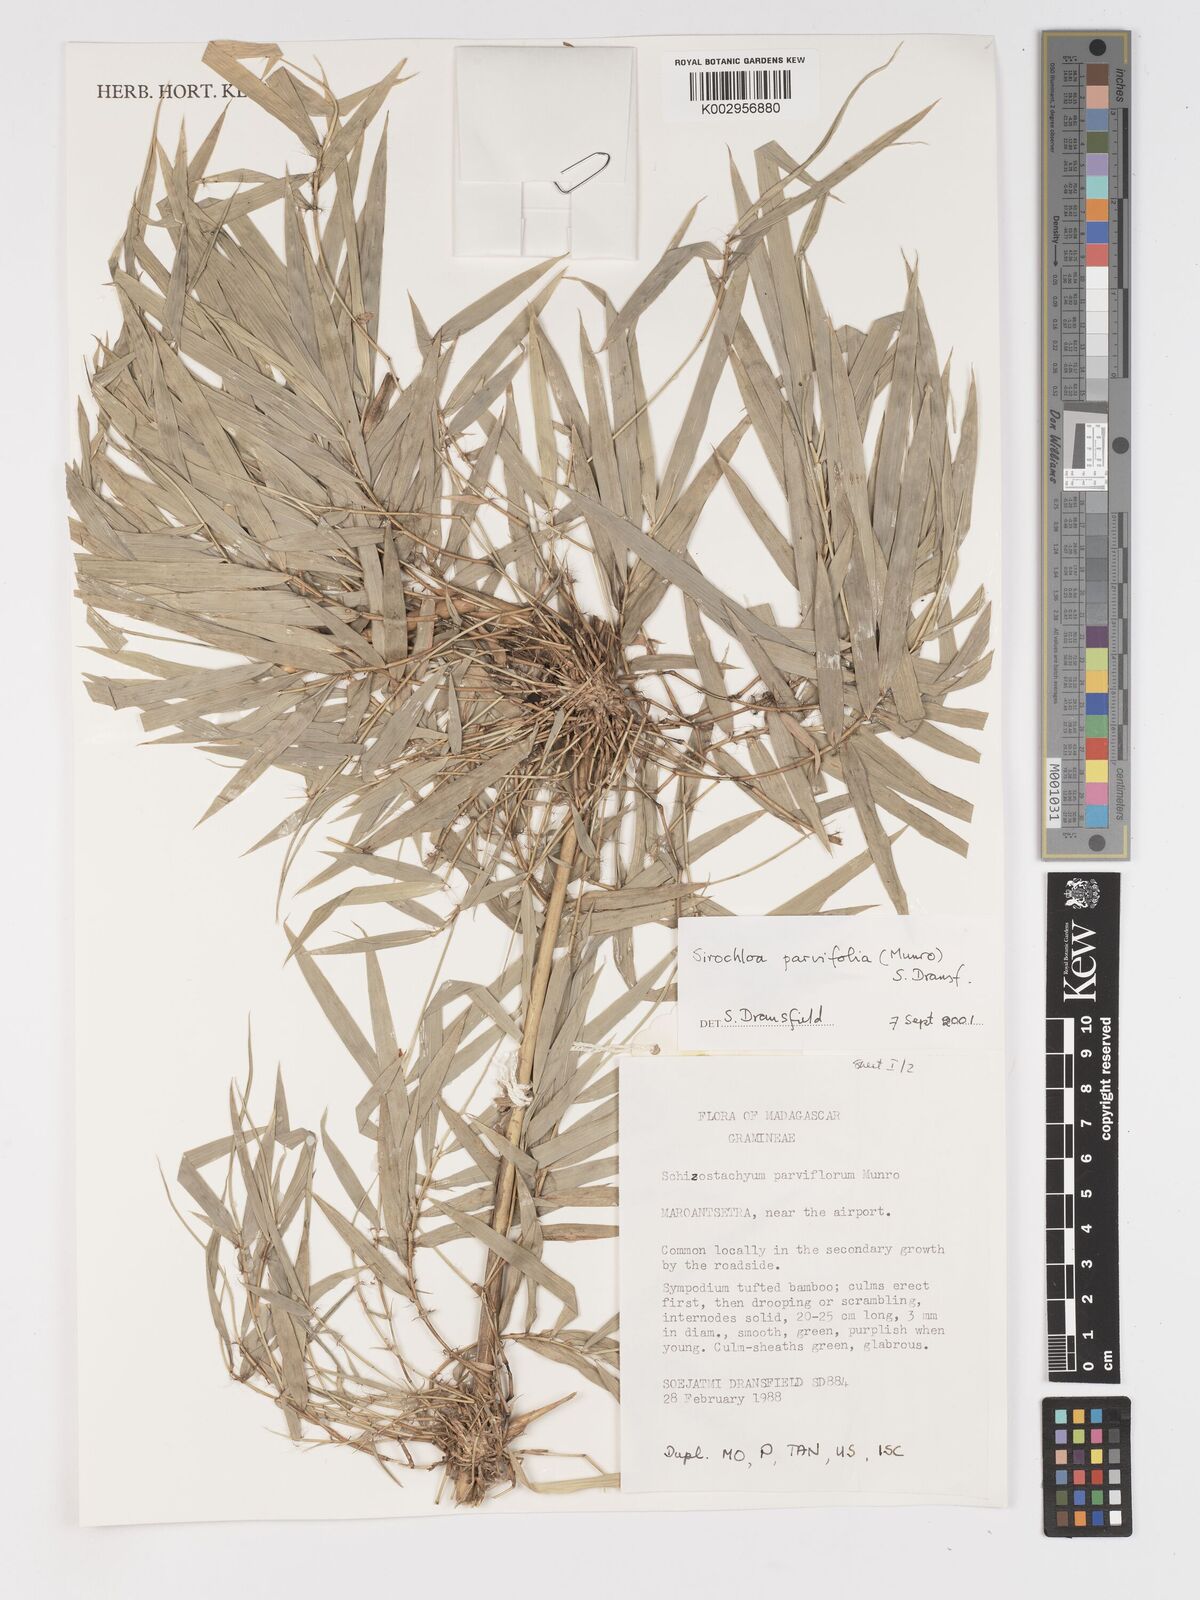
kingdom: Plantae
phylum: Tracheophyta
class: Liliopsida
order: Poales
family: Poaceae
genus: Sirochloa
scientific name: Sirochloa parvifolia
